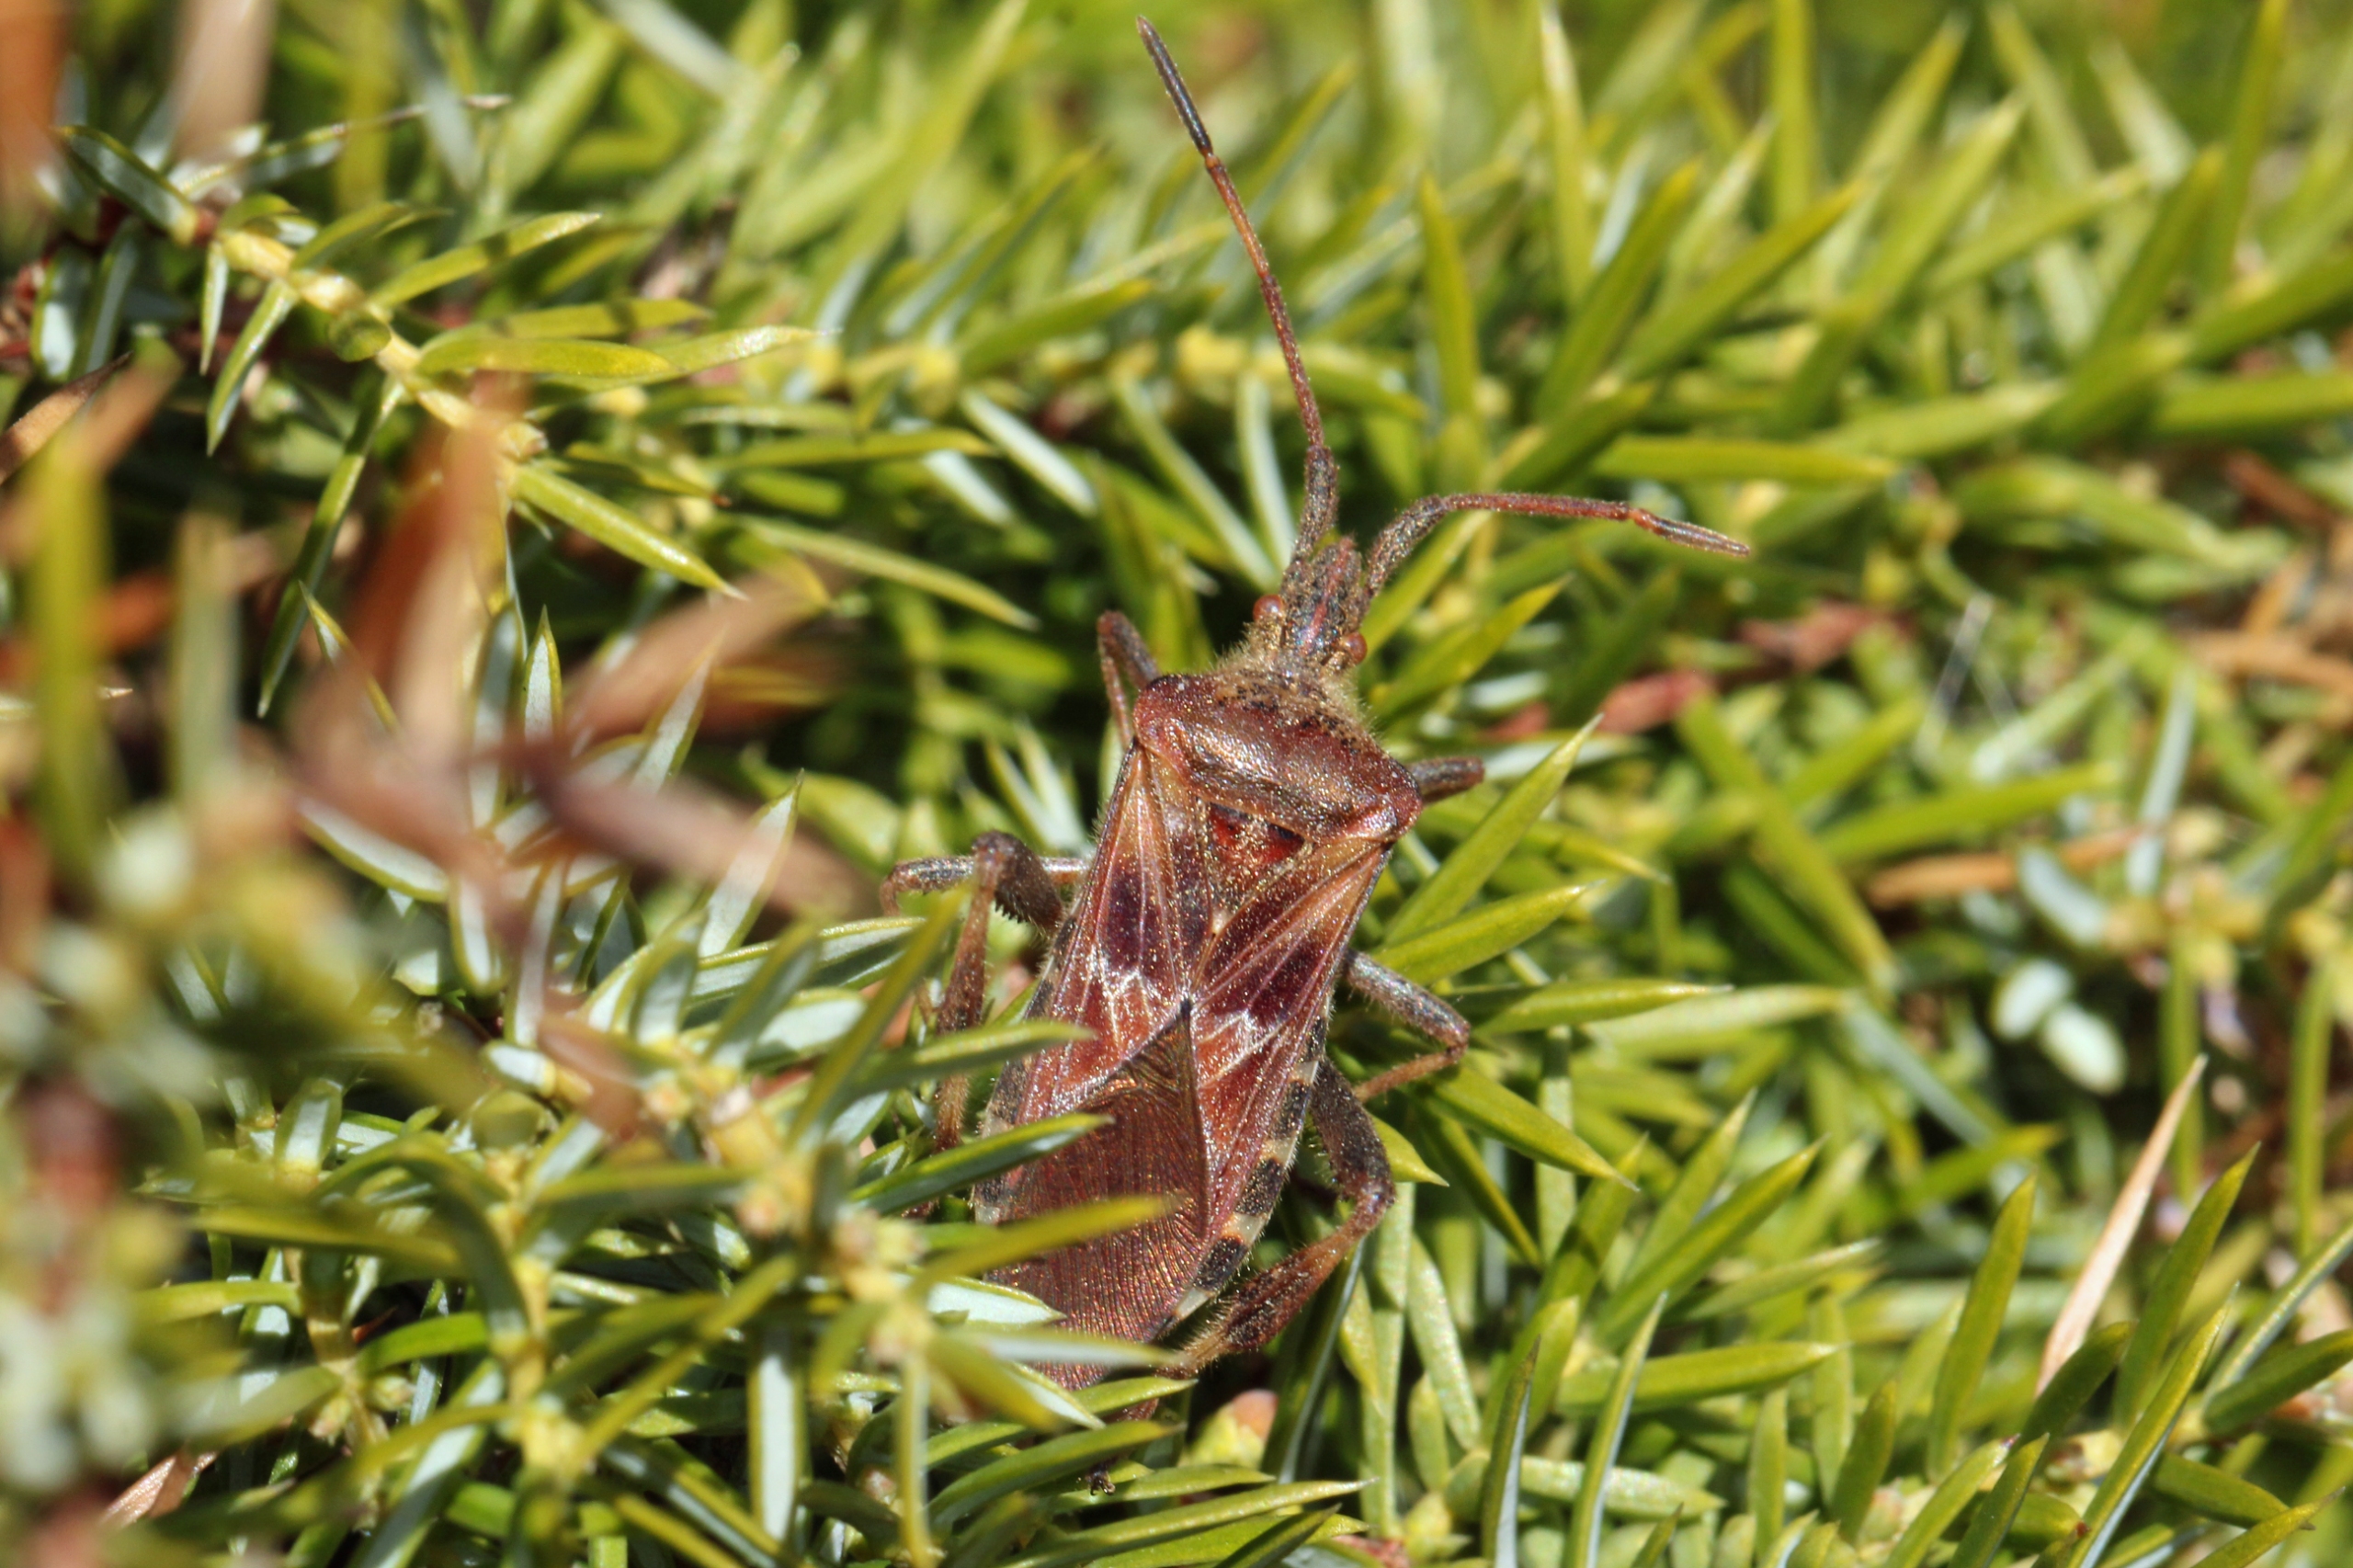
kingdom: Animalia
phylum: Arthropoda
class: Insecta
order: Hemiptera
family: Coreidae
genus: Leptoglossus
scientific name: Leptoglossus occidentalis
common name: Amerikansk fyrretæge
